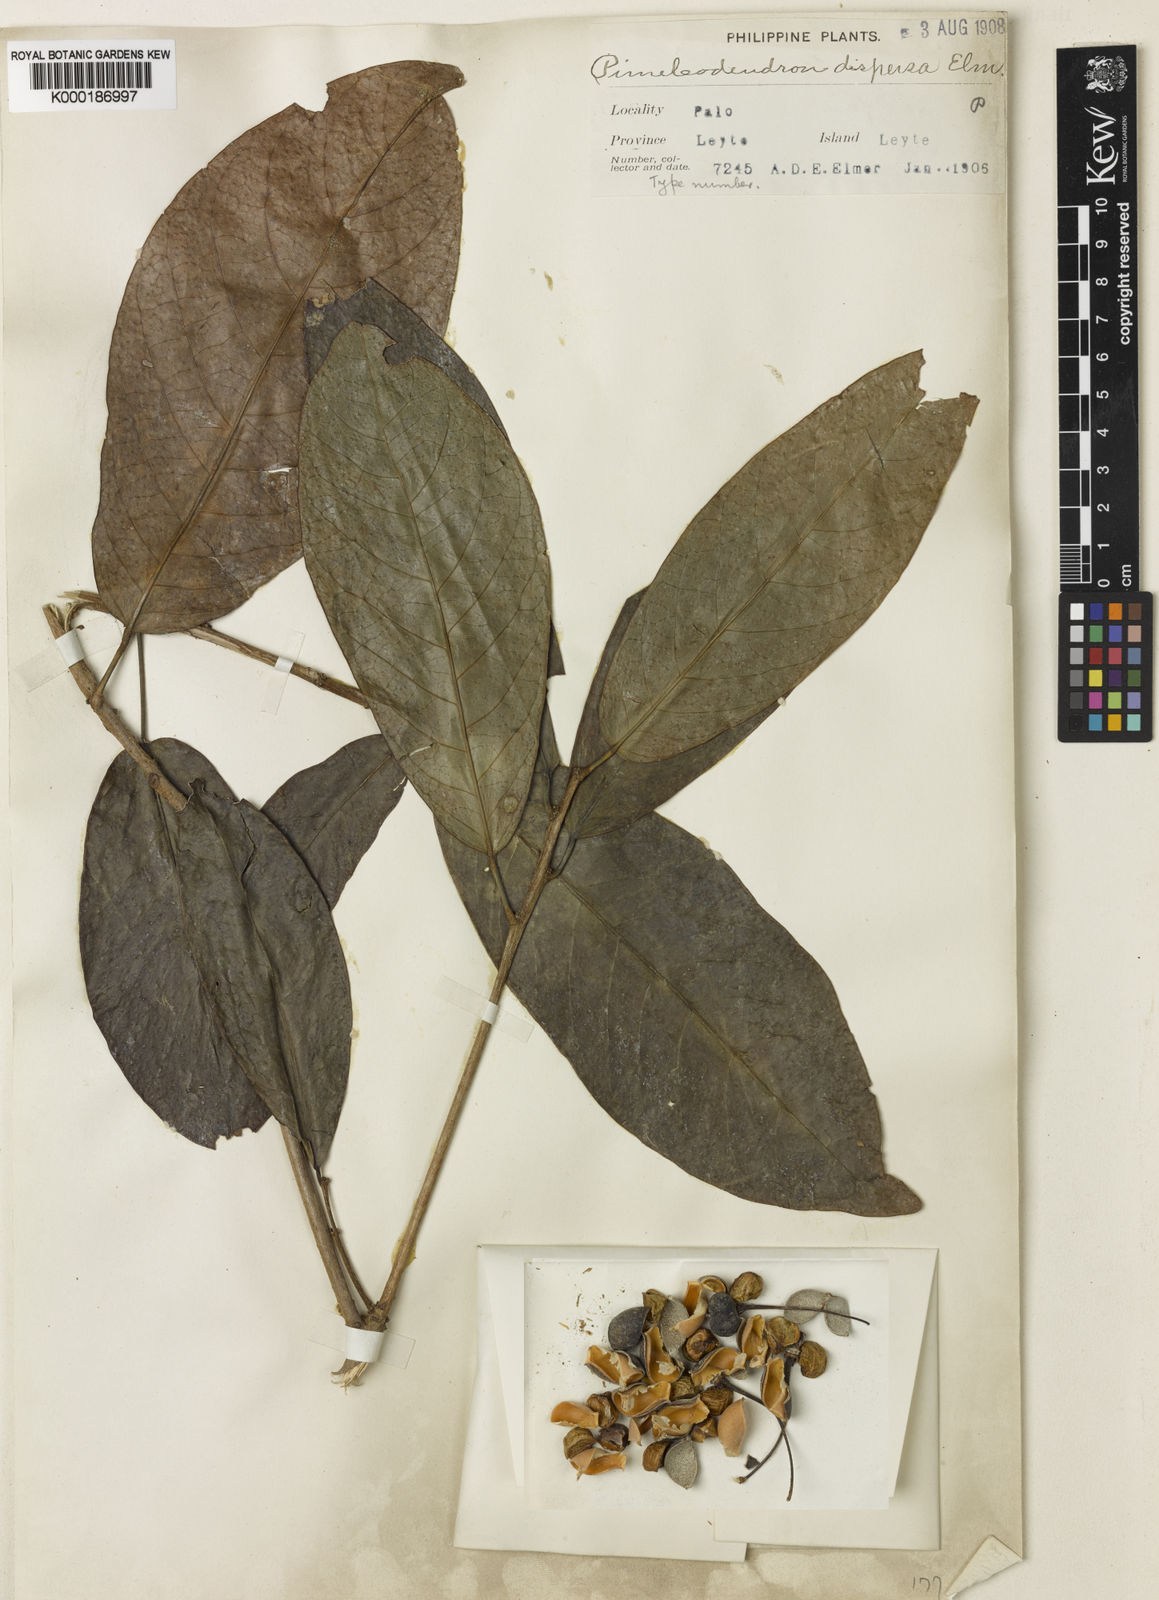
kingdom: Plantae
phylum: Tracheophyta
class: Magnoliopsida
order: Malpighiales
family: Phyllanthaceae
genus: Actephila
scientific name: Actephila
